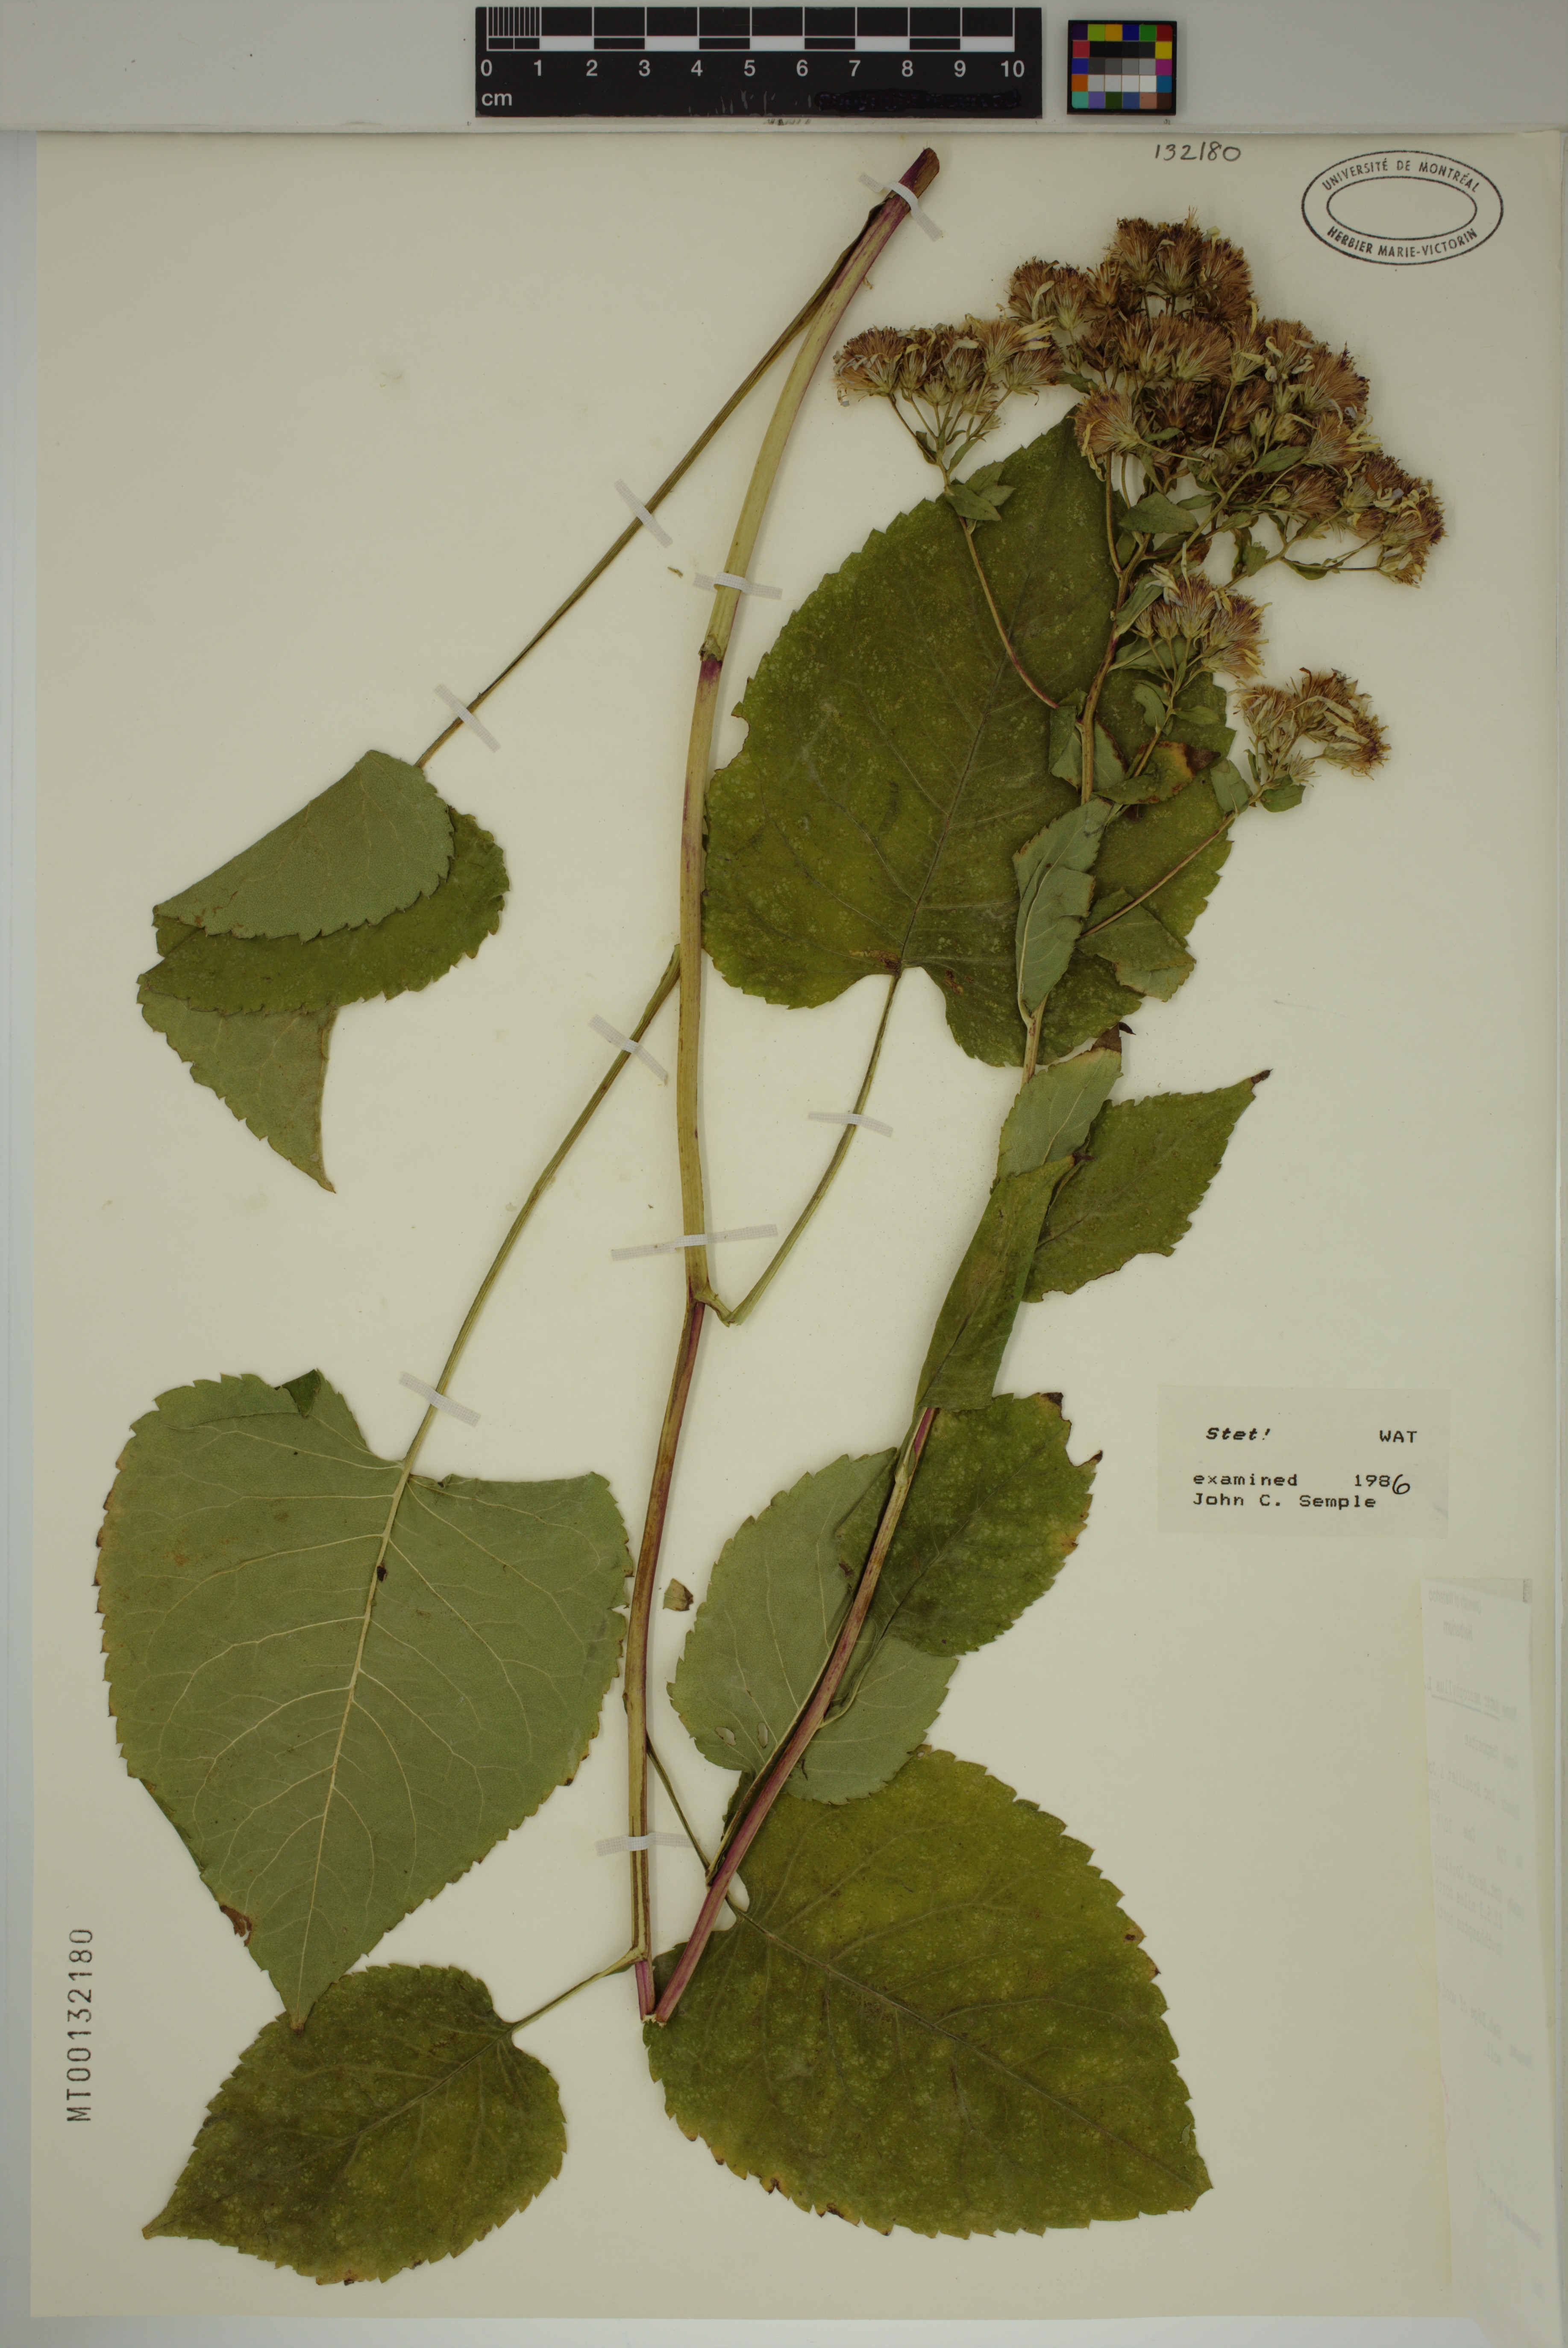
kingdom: Plantae
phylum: Tracheophyta
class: Magnoliopsida
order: Asterales
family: Asteraceae
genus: Eurybia
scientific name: Eurybia macrophylla
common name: Big-leaved aster
